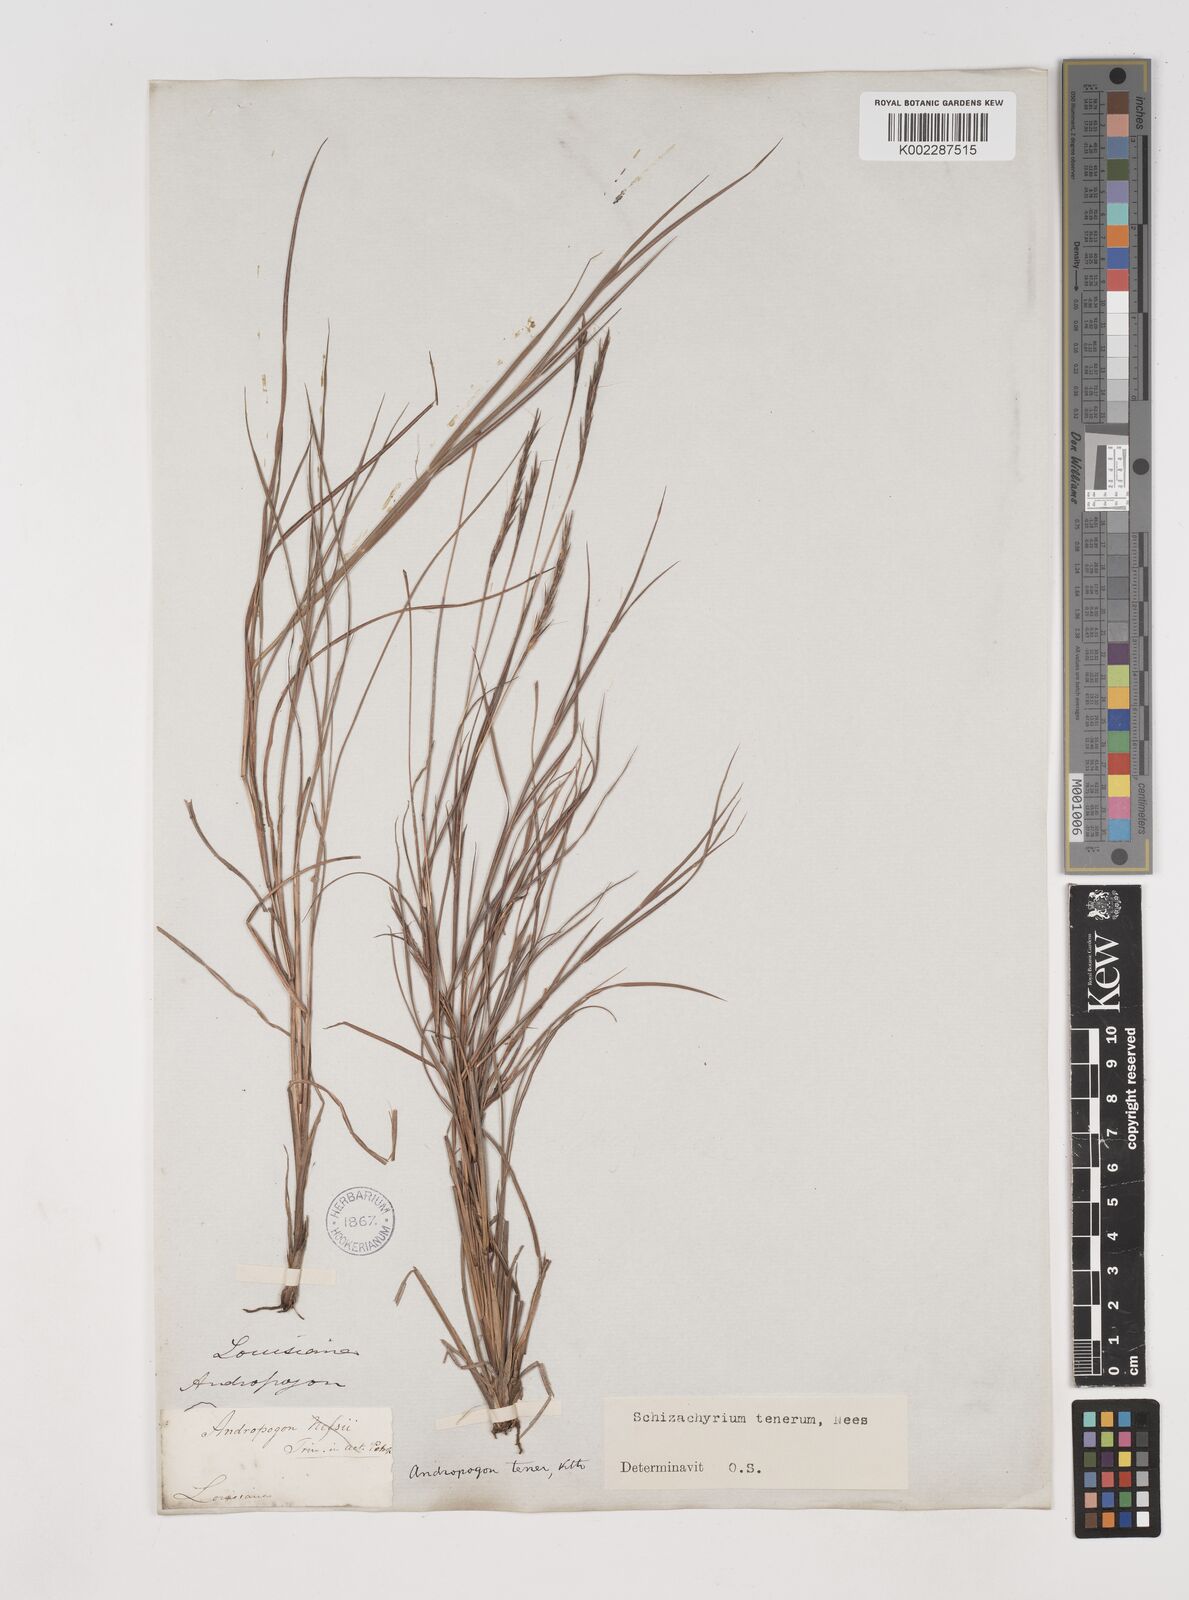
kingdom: Plantae
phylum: Tracheophyta
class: Liliopsida
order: Poales
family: Poaceae
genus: Andropogon
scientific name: Andropogon tener
